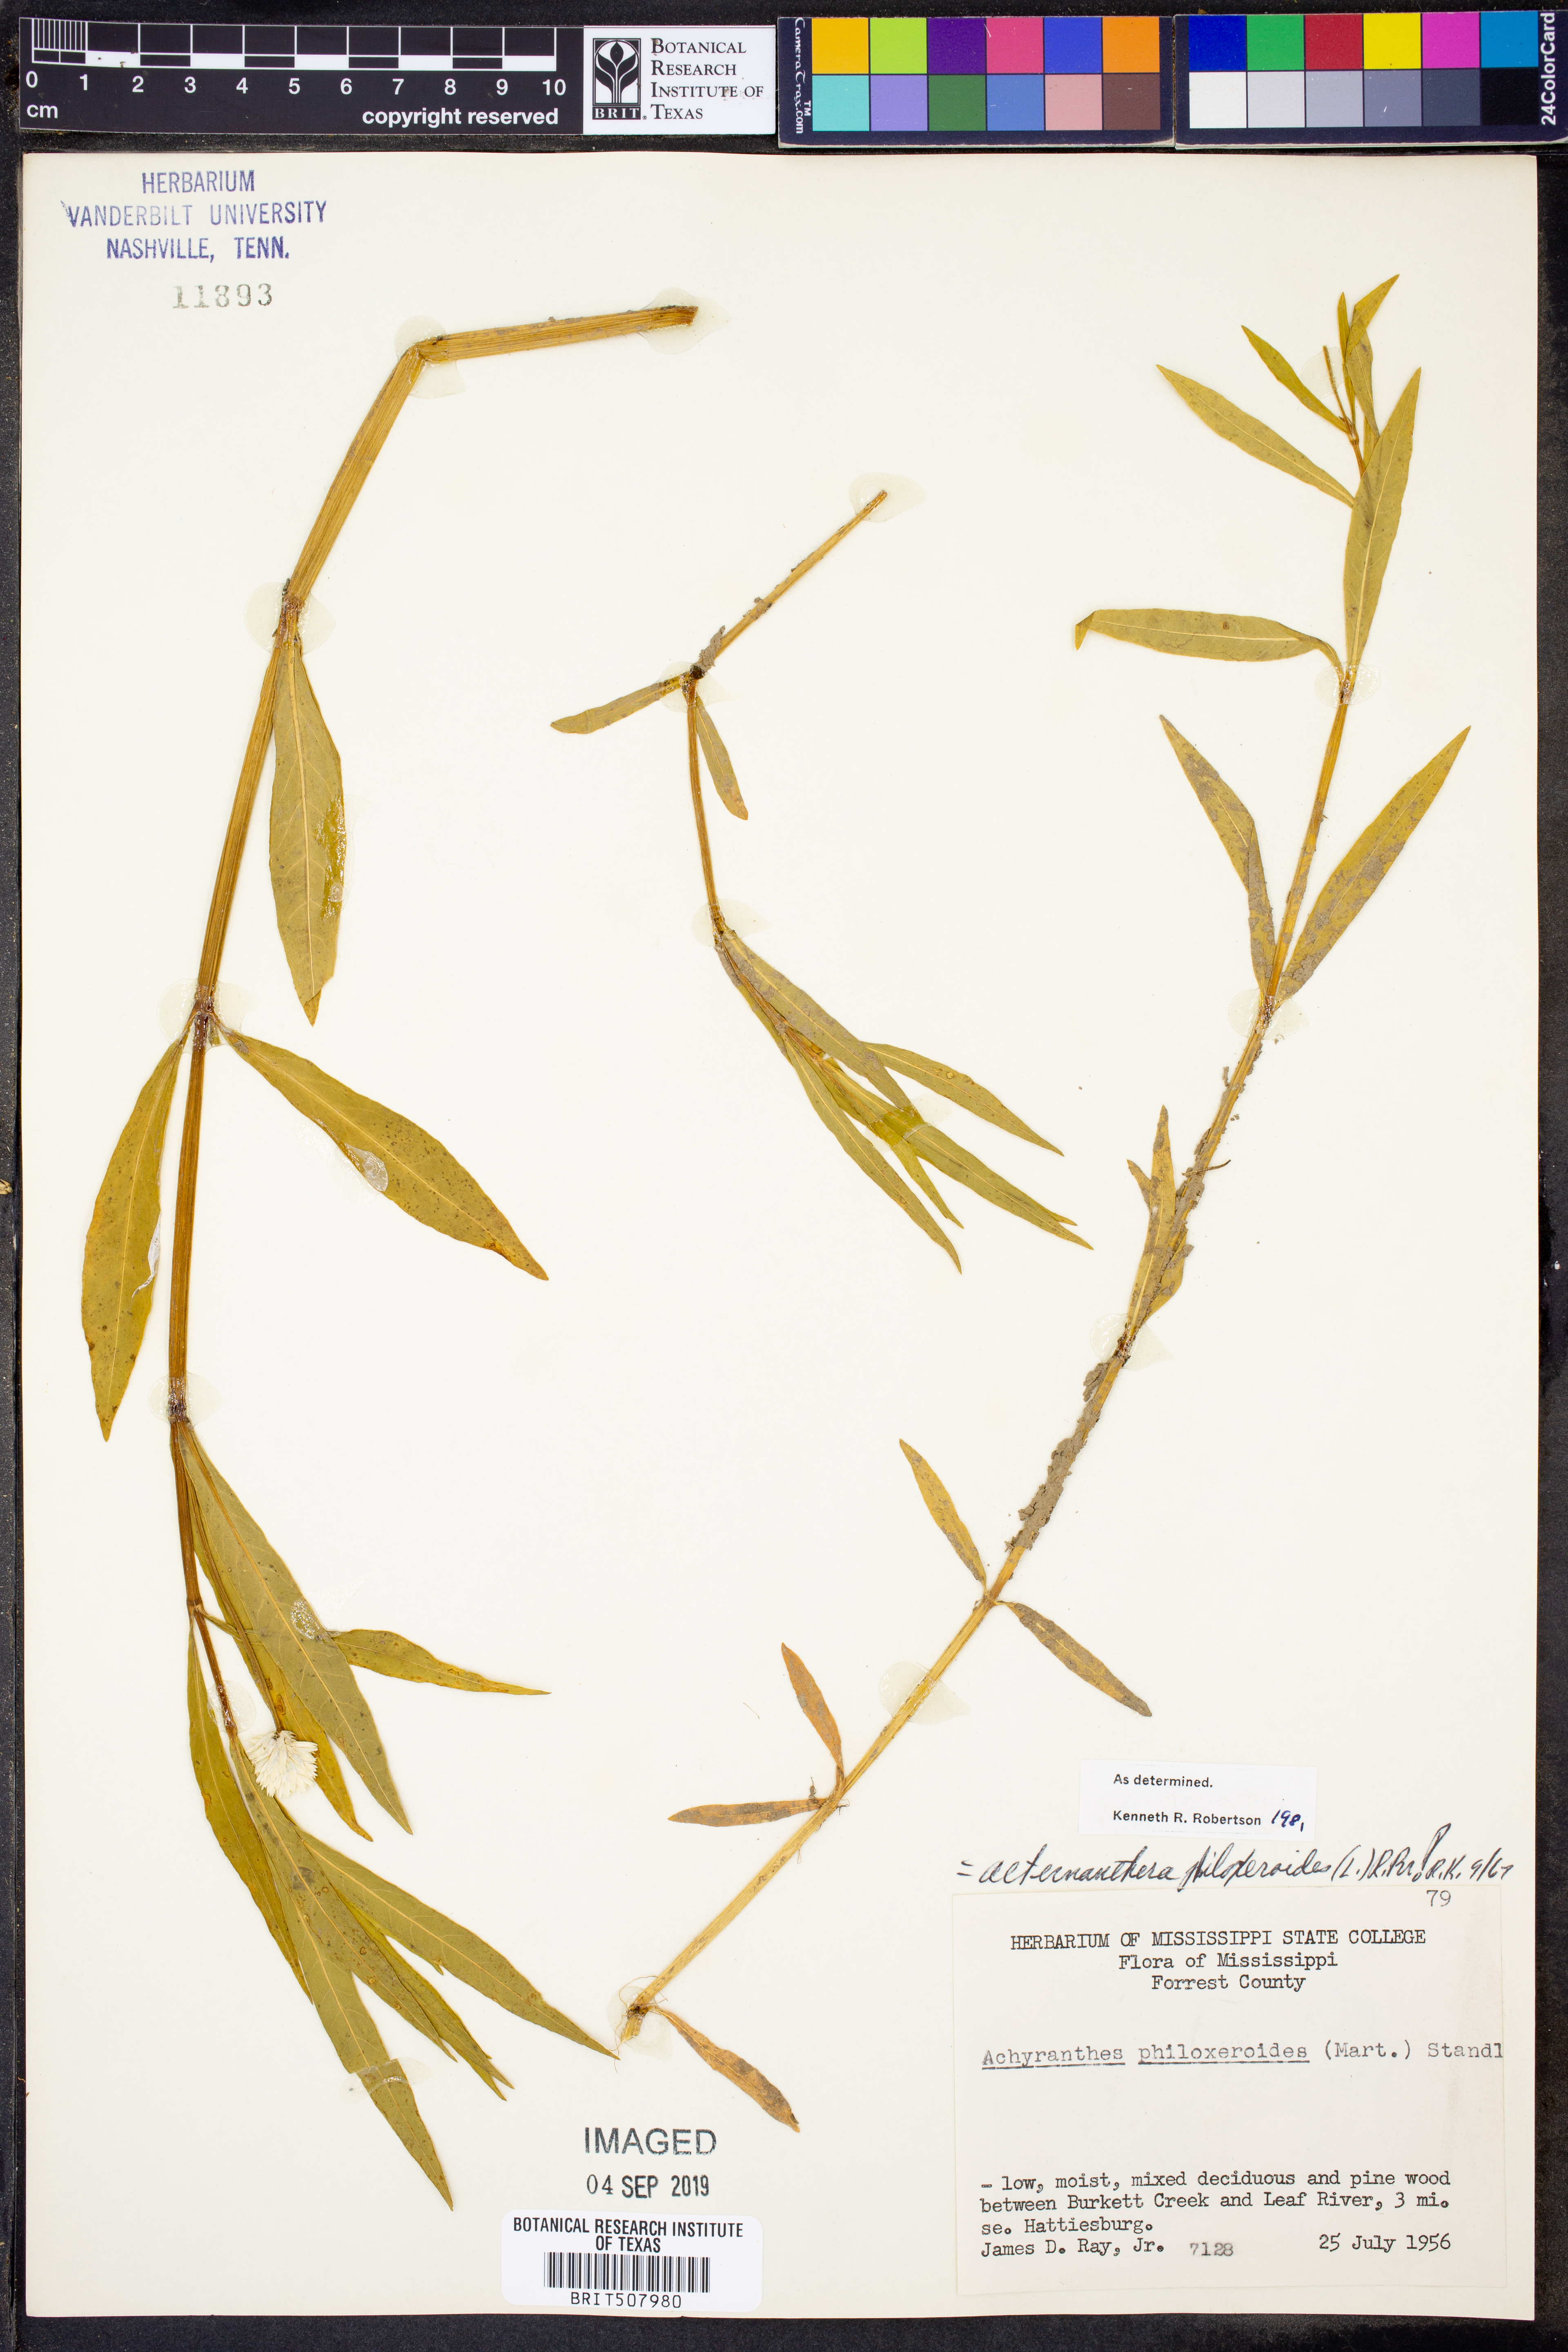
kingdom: Plantae
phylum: Tracheophyta
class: Magnoliopsida
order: Caryophyllales
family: Amaranthaceae
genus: Alternanthera
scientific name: Alternanthera philoxeroides
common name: Alligatorweed
